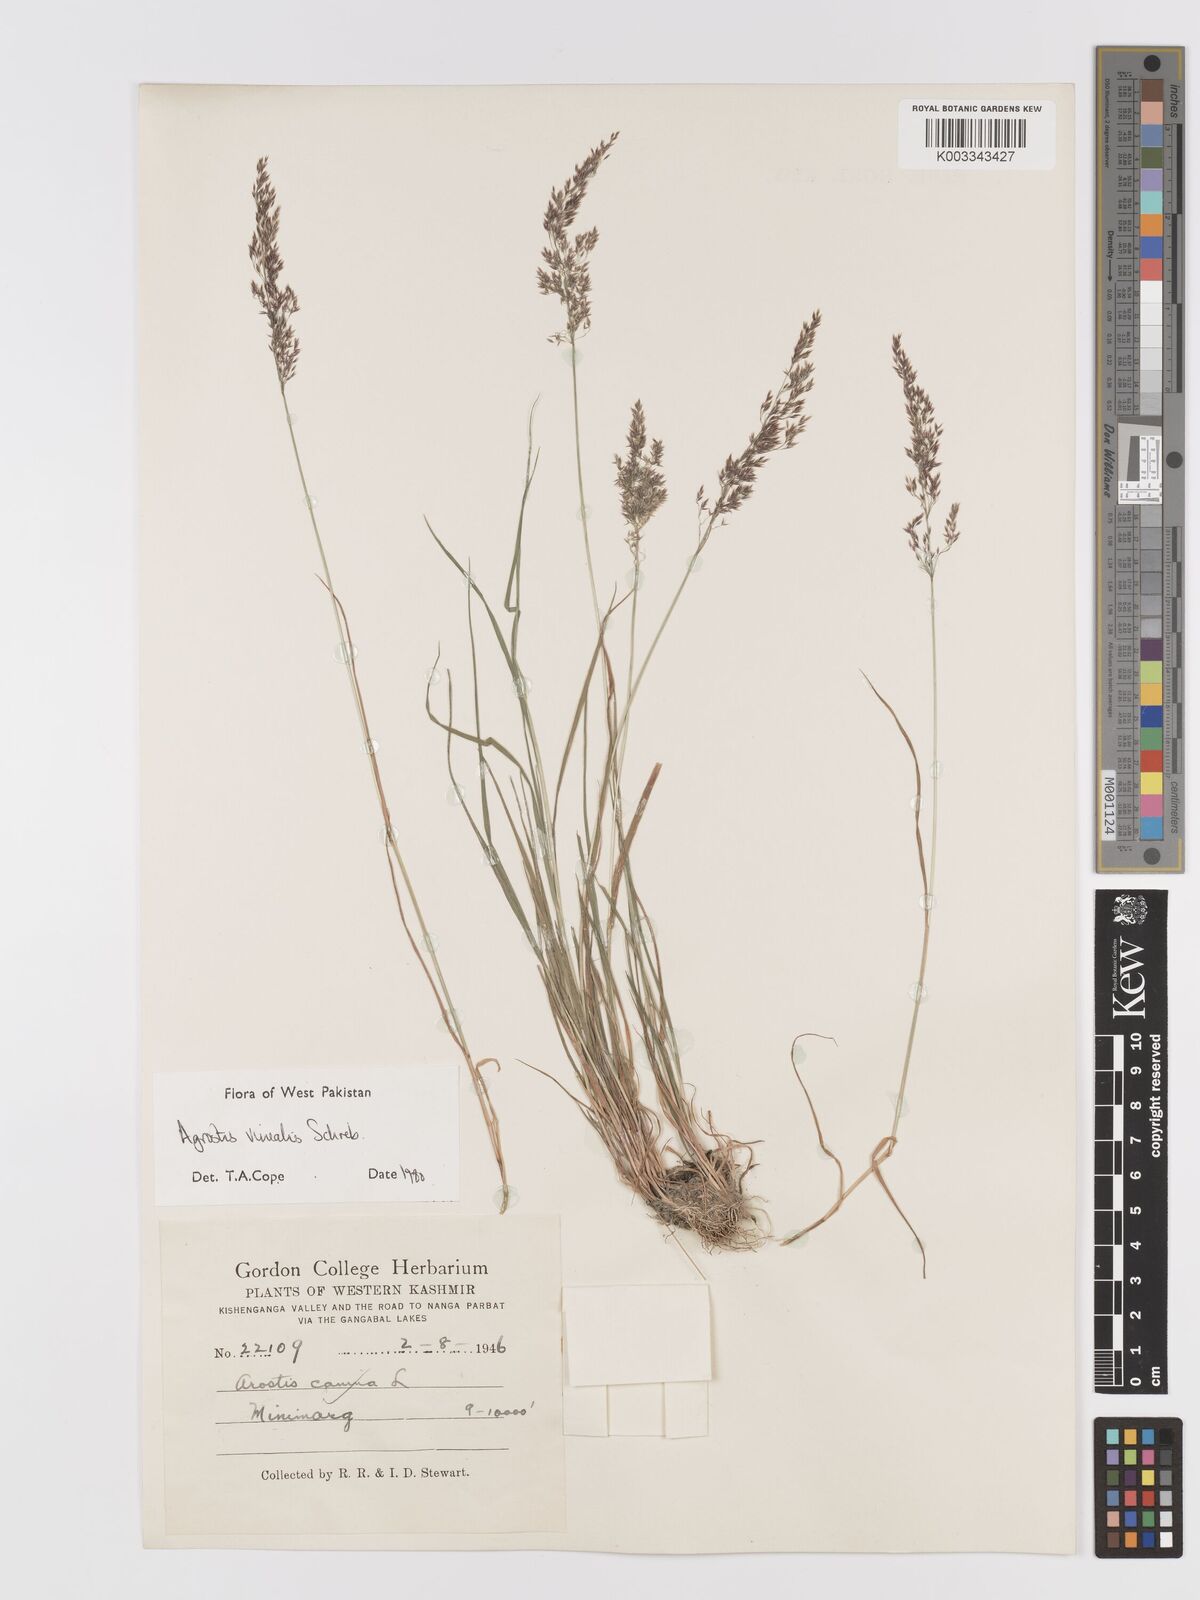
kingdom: Plantae
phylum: Tracheophyta
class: Liliopsida
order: Poales
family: Poaceae
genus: Agrostis
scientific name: Agrostis vinealis
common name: Brown bent
